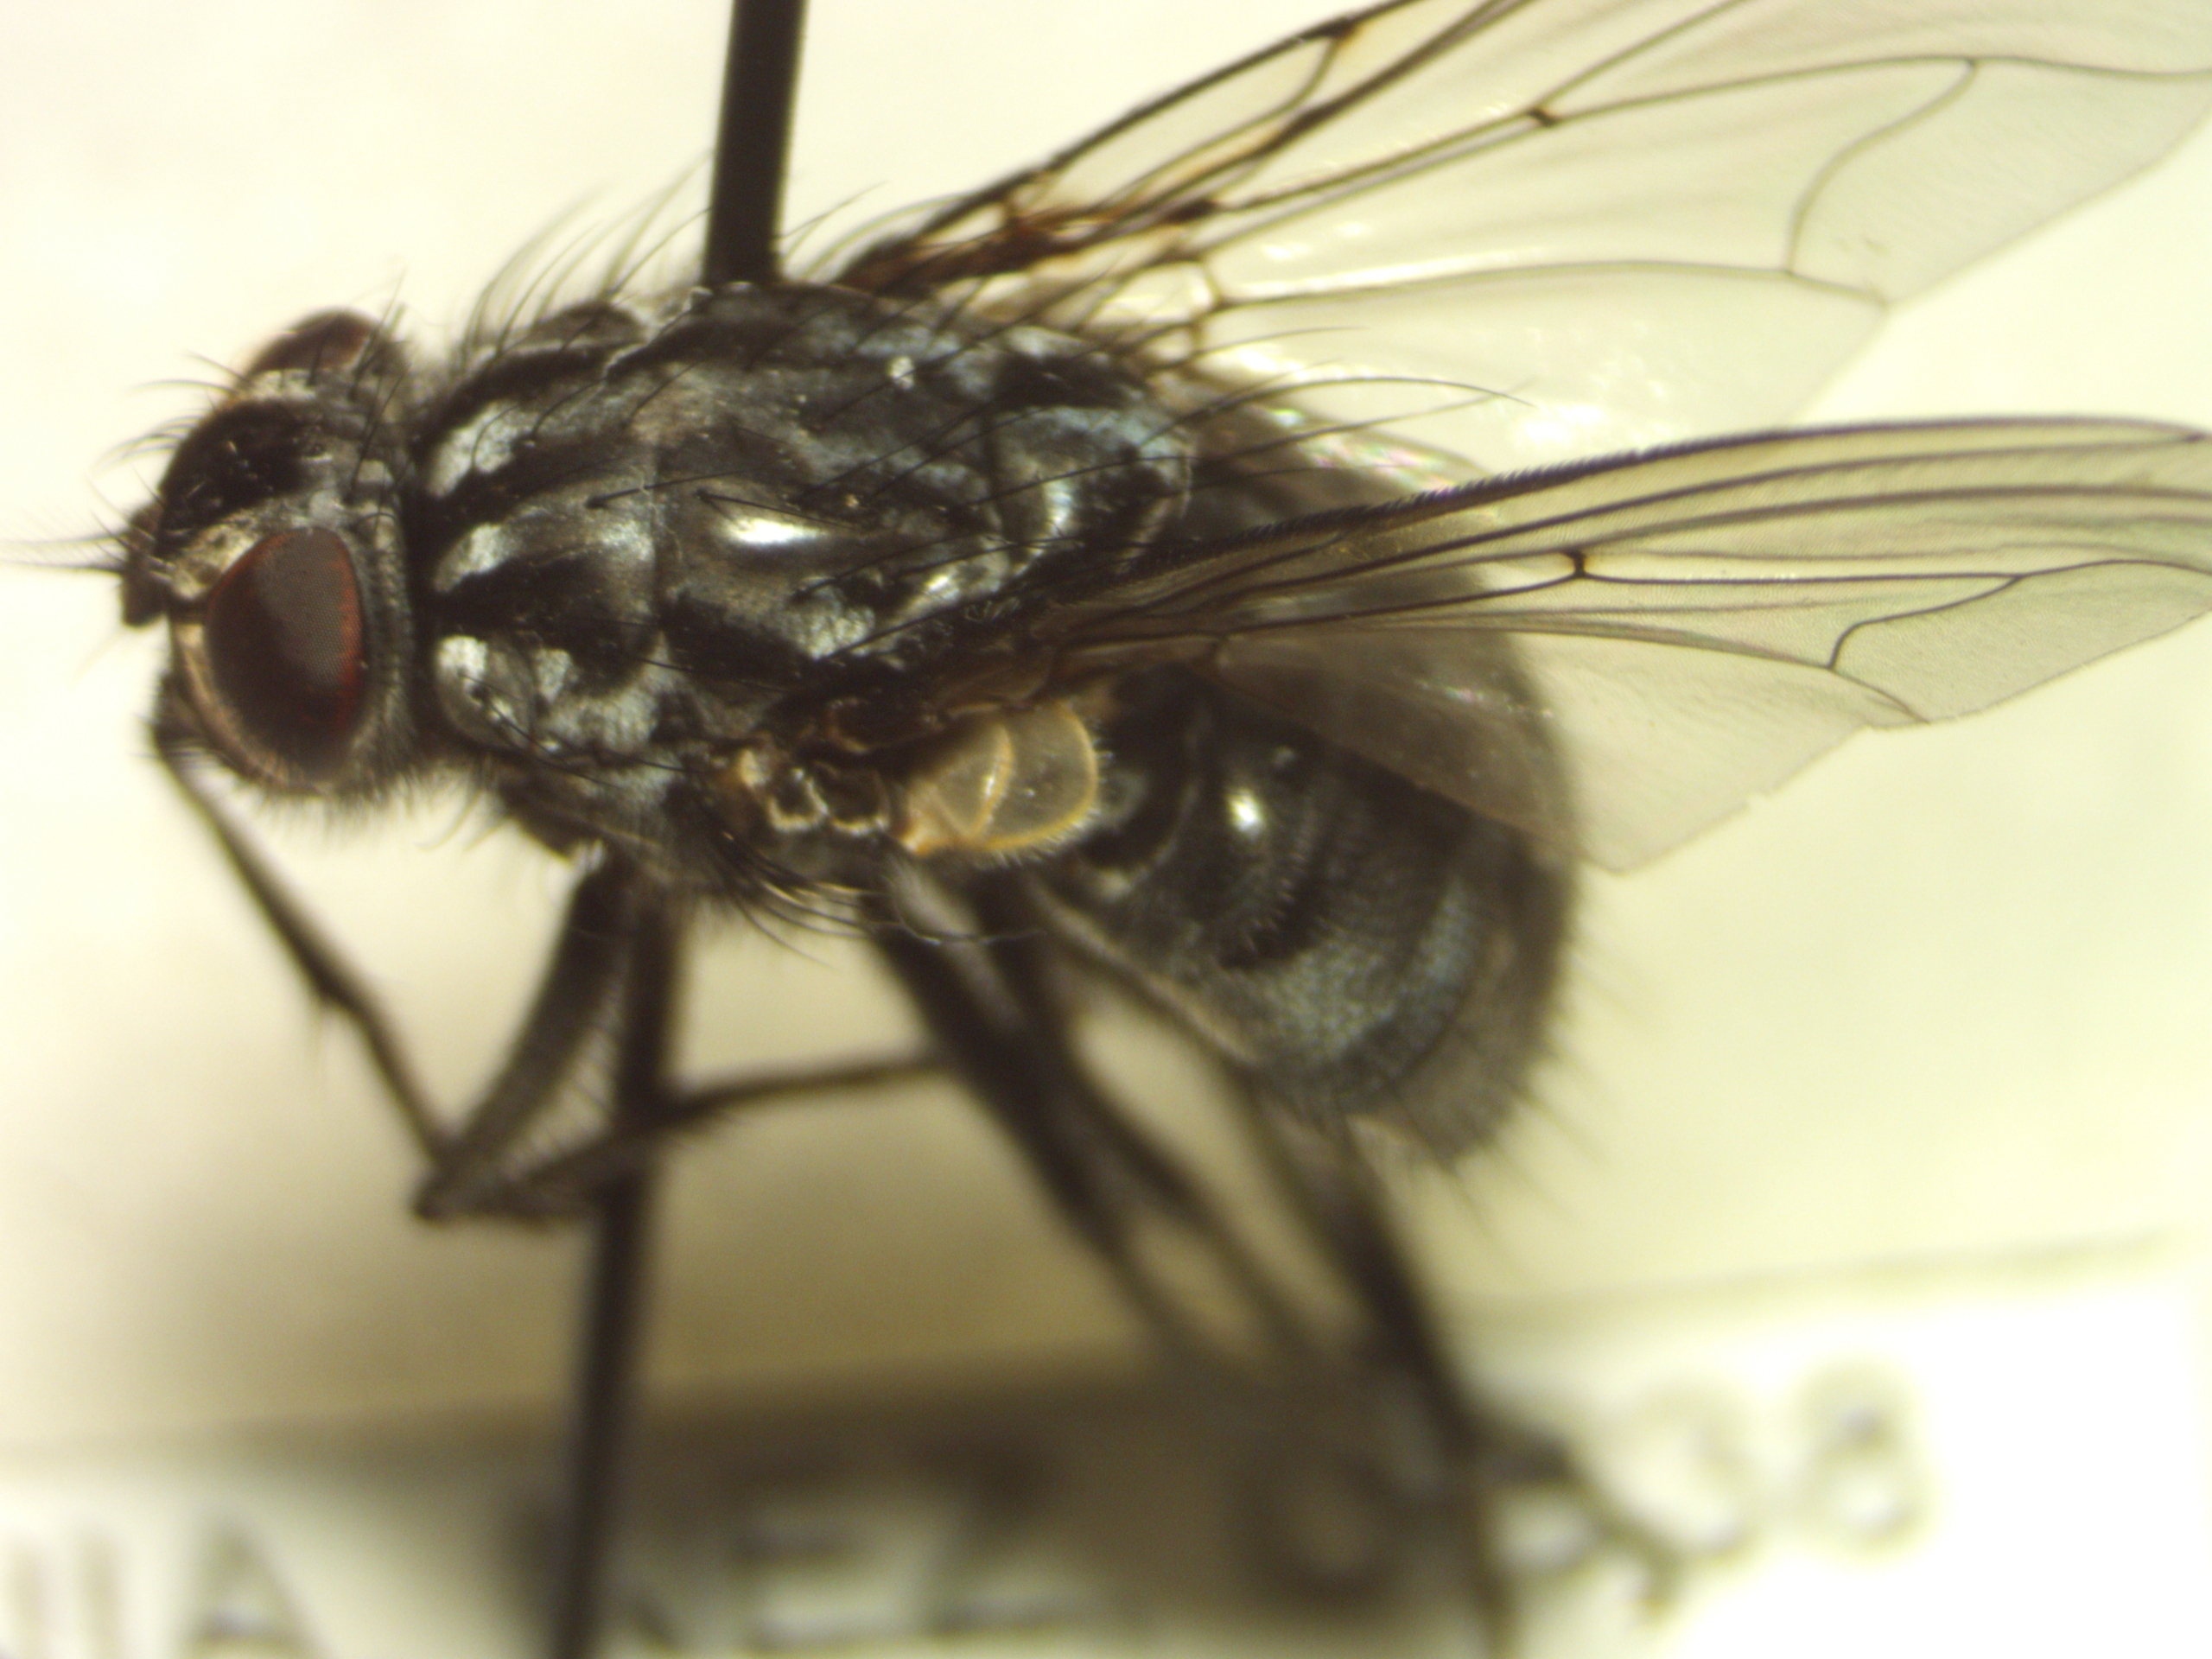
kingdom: Animalia
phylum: Arthropoda
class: Insecta
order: Diptera
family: Muscidae
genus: Polietes
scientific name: Polietes lardaria
